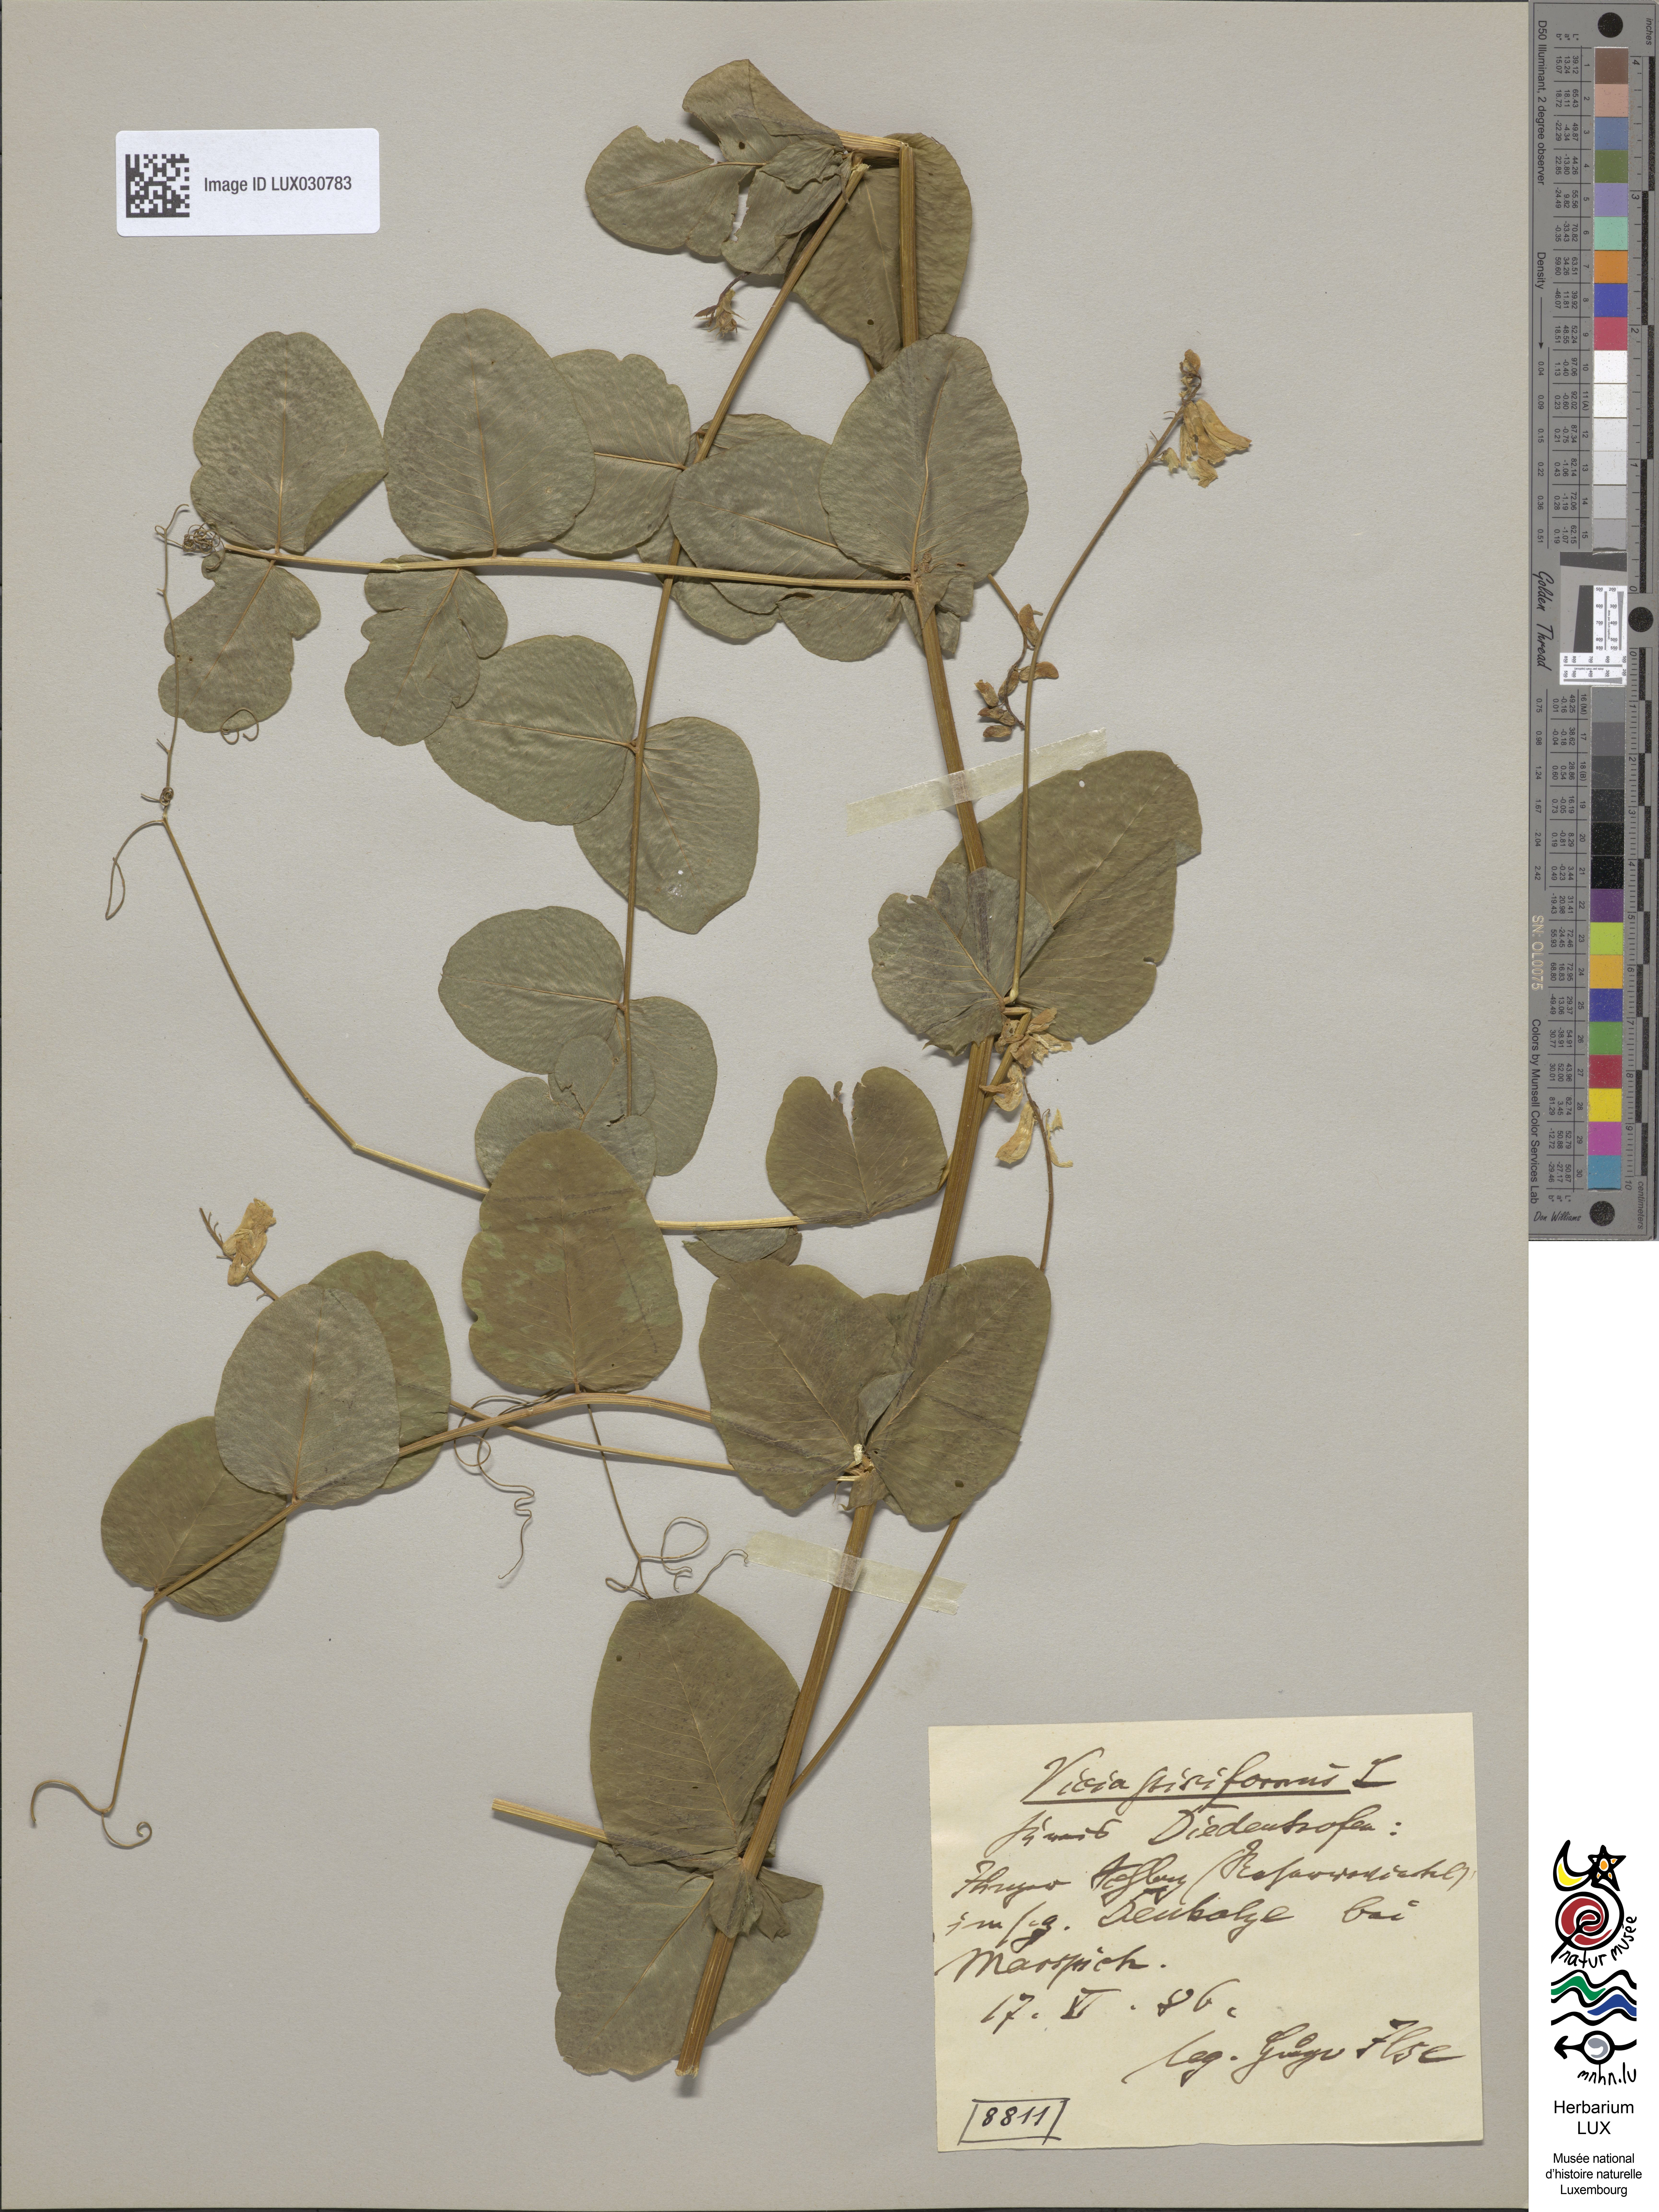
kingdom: Plantae
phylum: Tracheophyta
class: Magnoliopsida
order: Fabales
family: Fabaceae
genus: Vicia
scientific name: Vicia pisiformis
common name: Pale-flower vetch
